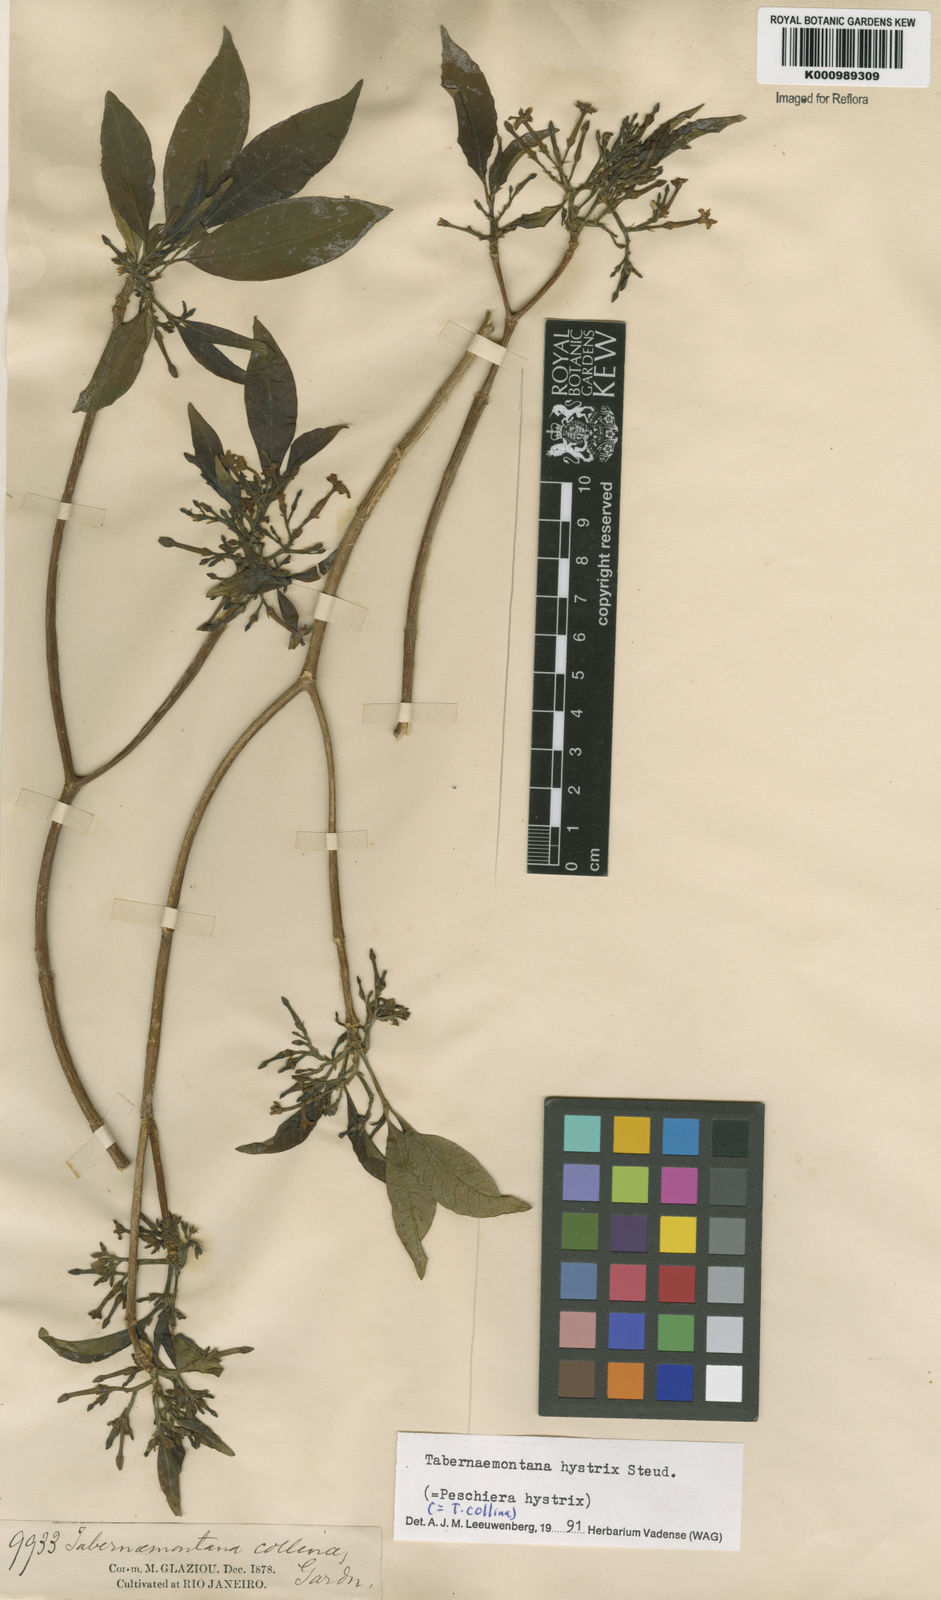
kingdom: Plantae
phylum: Tracheophyta
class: Magnoliopsida
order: Gentianales
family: Apocynaceae
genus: Tabernaemontana
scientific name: Tabernaemontana hystrix
